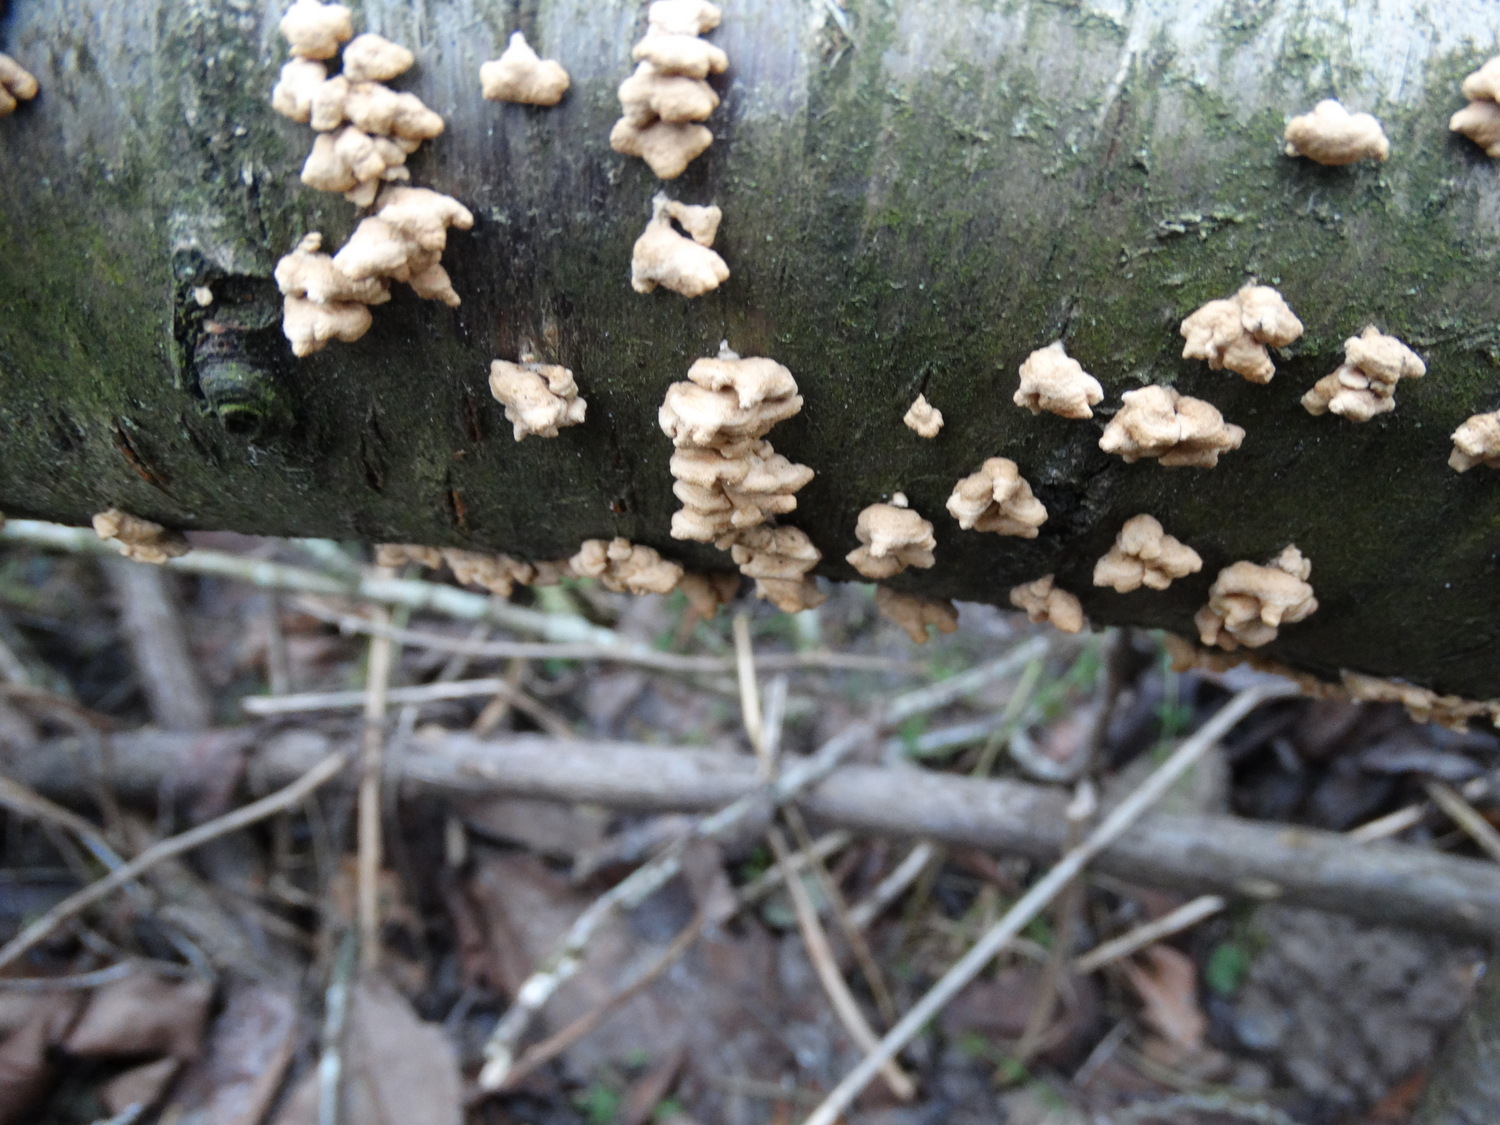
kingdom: Fungi
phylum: Basidiomycota
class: Agaricomycetes
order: Amylocorticiales
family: Amylocorticiaceae
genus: Plicaturopsis
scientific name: Plicaturopsis crispa
